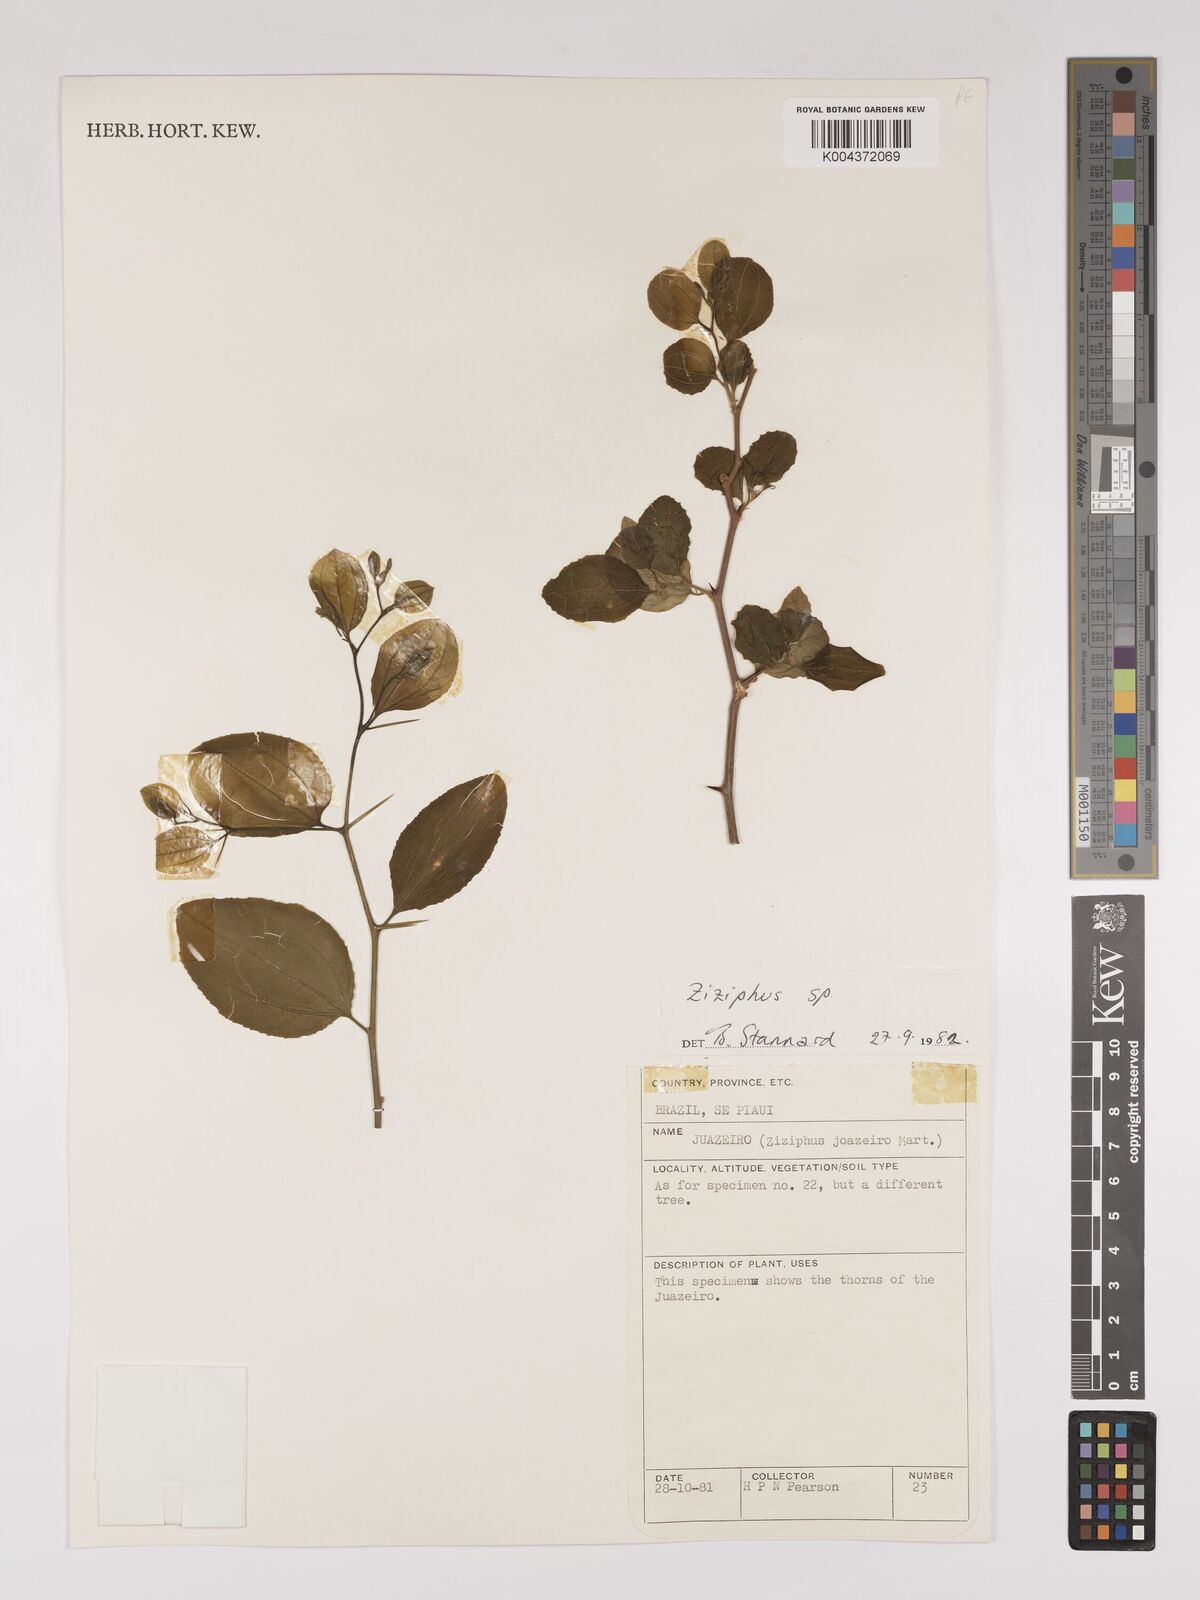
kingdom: Plantae
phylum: Tracheophyta
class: Magnoliopsida
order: Rosales
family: Rhamnaceae
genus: Sarcomphalus
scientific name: Sarcomphalus cotinifolius
